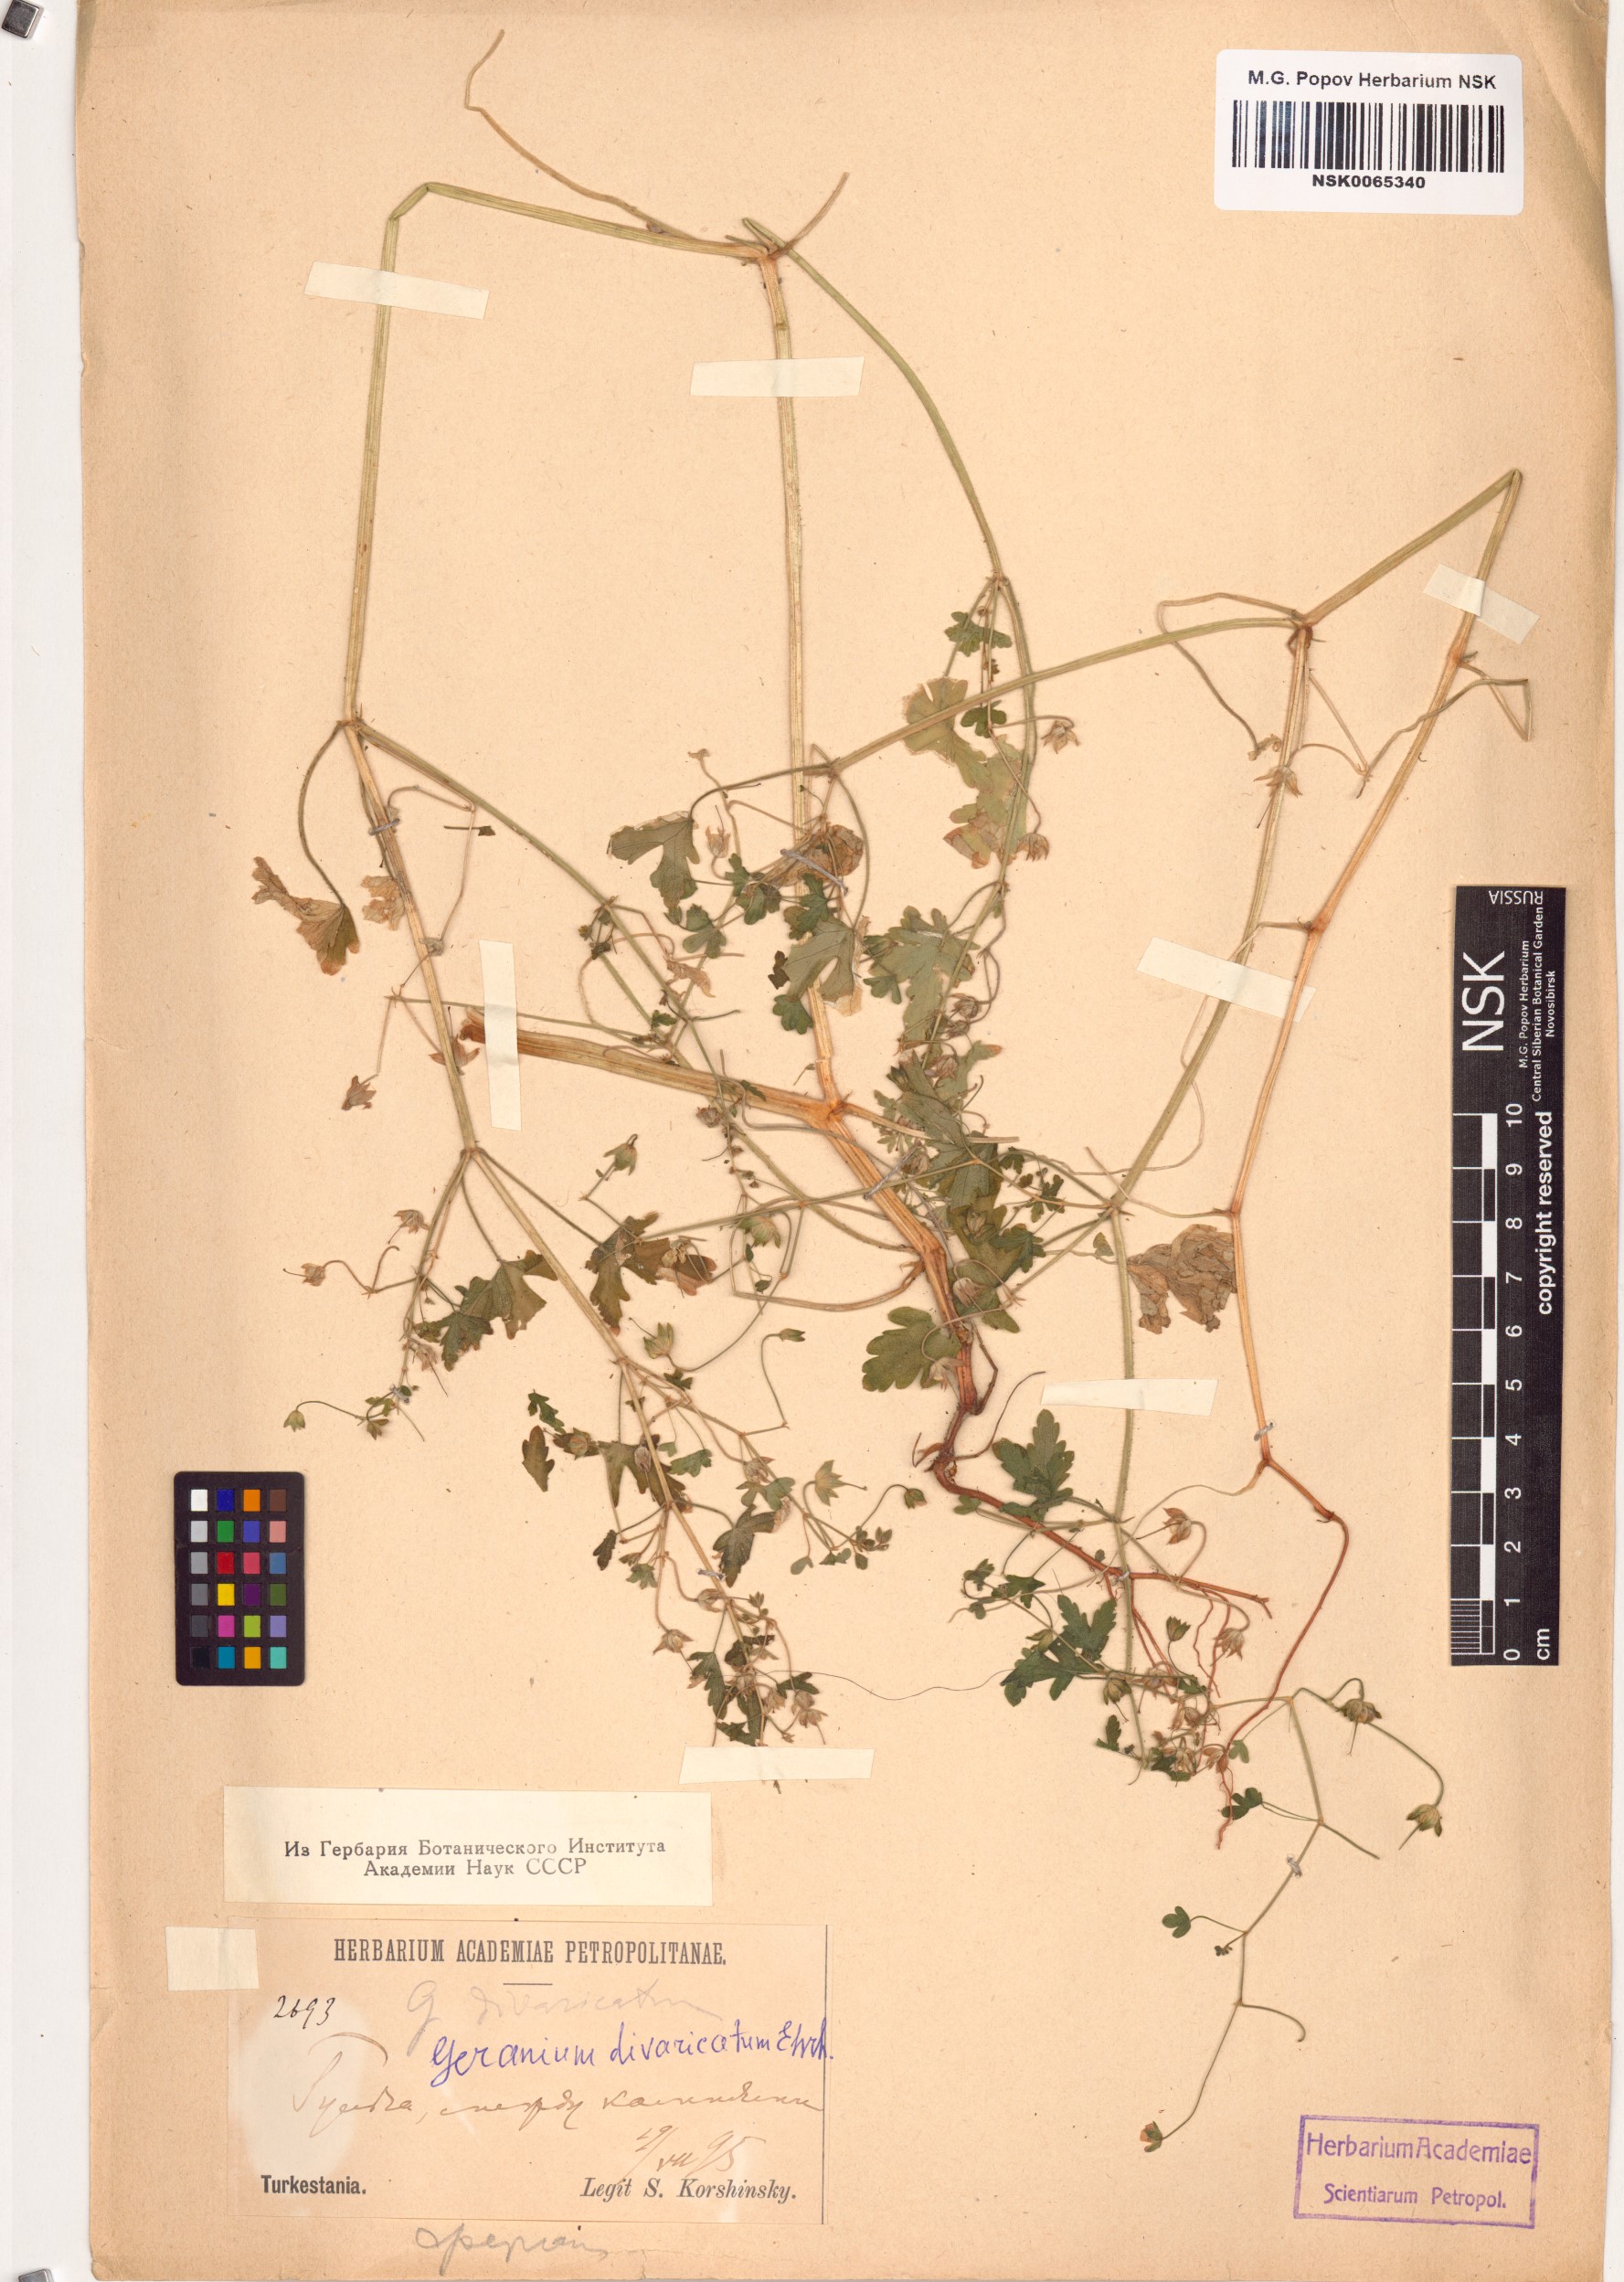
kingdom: Plantae
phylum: Tracheophyta
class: Magnoliopsida
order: Geraniales
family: Geraniaceae
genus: Geranium
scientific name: Geranium divaricatum
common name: Spreading crane's-bill
